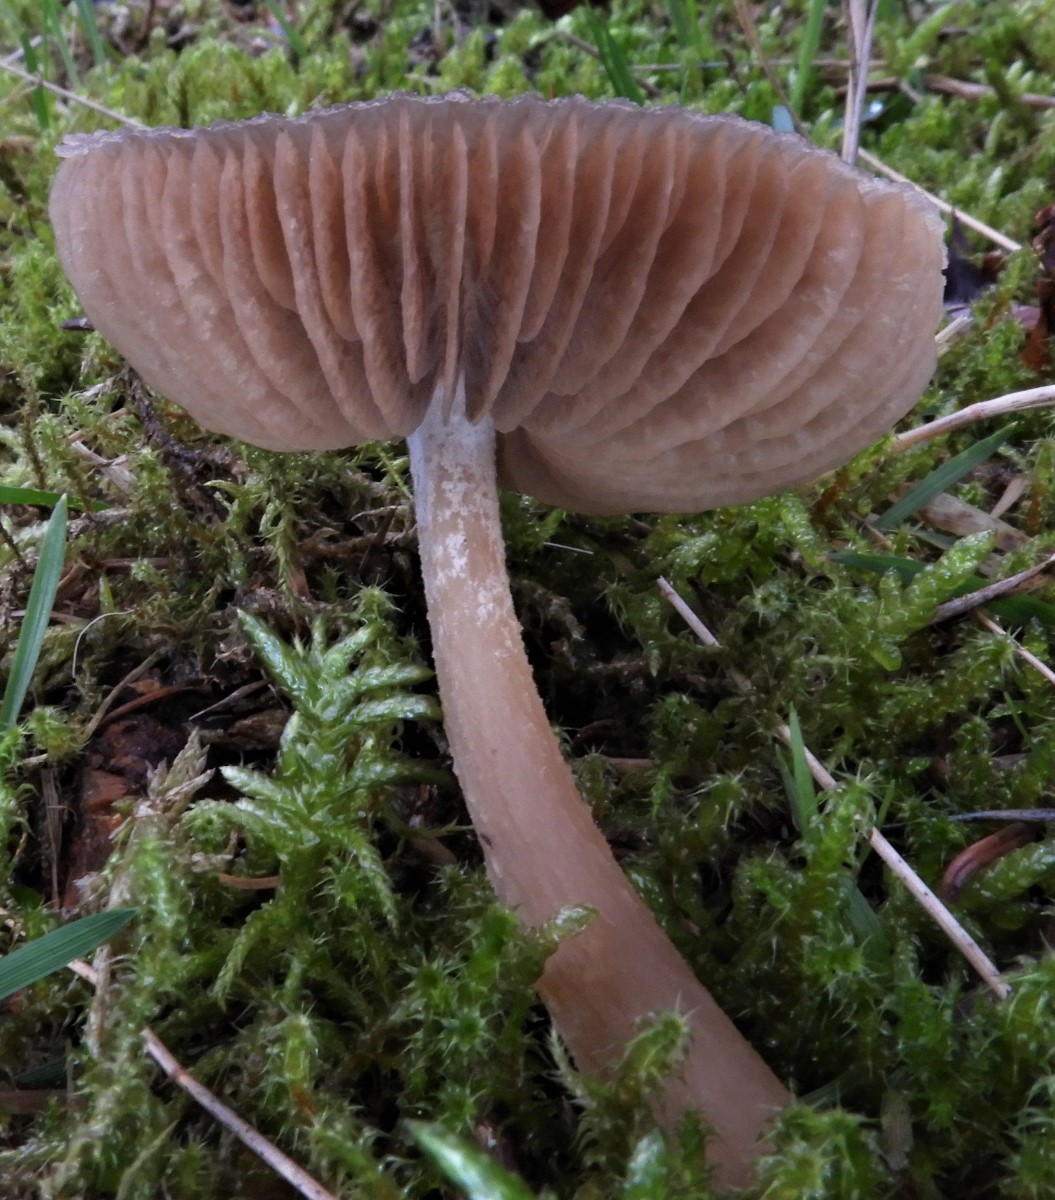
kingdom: Fungi
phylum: Basidiomycota
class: Agaricomycetes
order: Agaricales
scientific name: Agaricales
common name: champignonordenen
